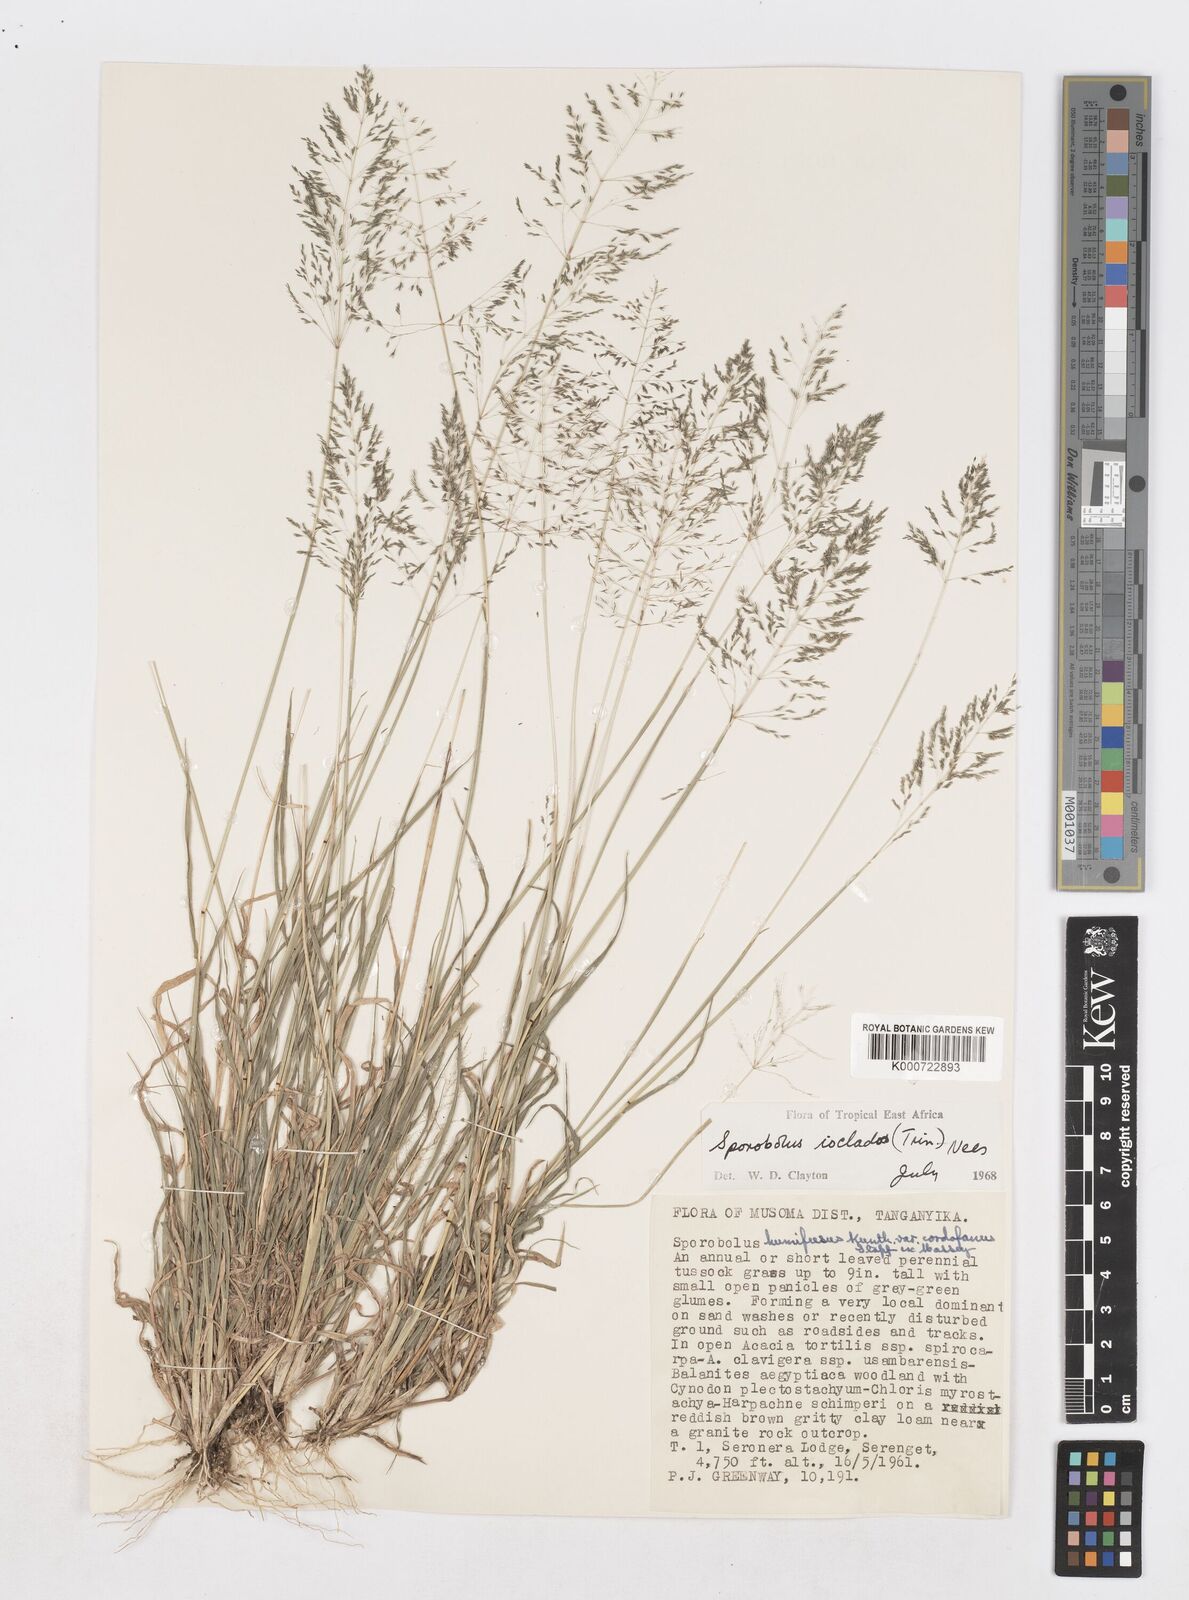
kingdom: Plantae
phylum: Tracheophyta
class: Liliopsida
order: Poales
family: Poaceae
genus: Sporobolus
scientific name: Sporobolus ioclados
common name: Pan dropseed
